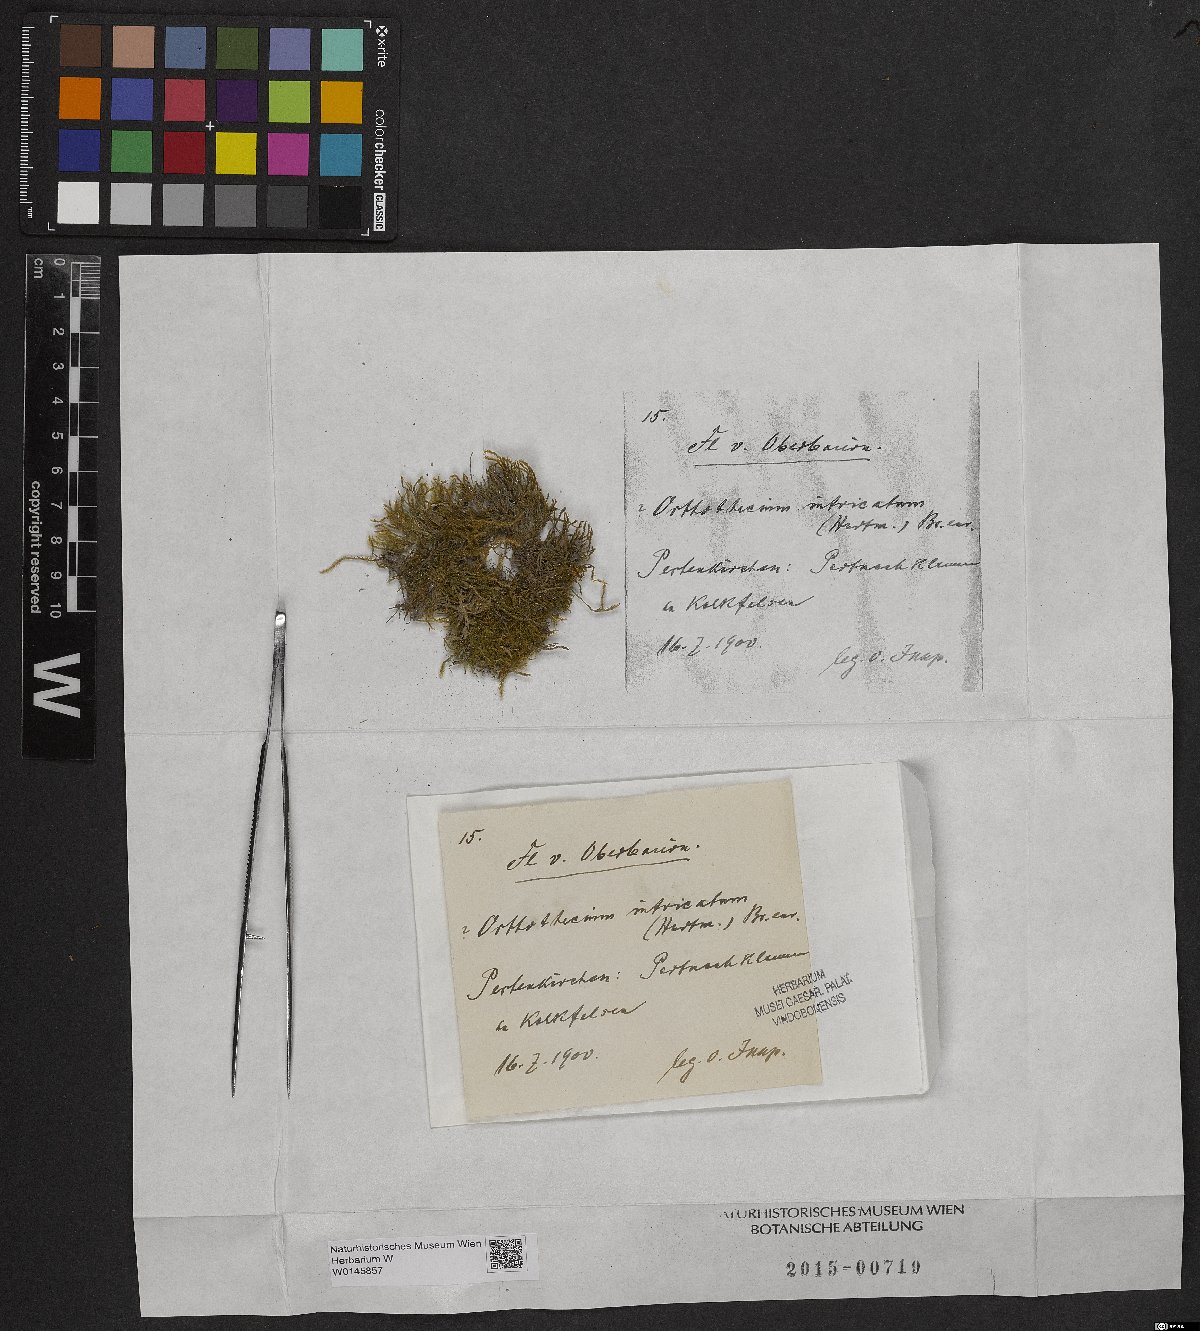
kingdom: Plantae
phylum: Bryophyta
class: Bryopsida
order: Hypnales
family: Plagiotheciaceae
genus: Orthothecium
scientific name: Orthothecium intricatum
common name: Fine-leaved erect-capsule moss
